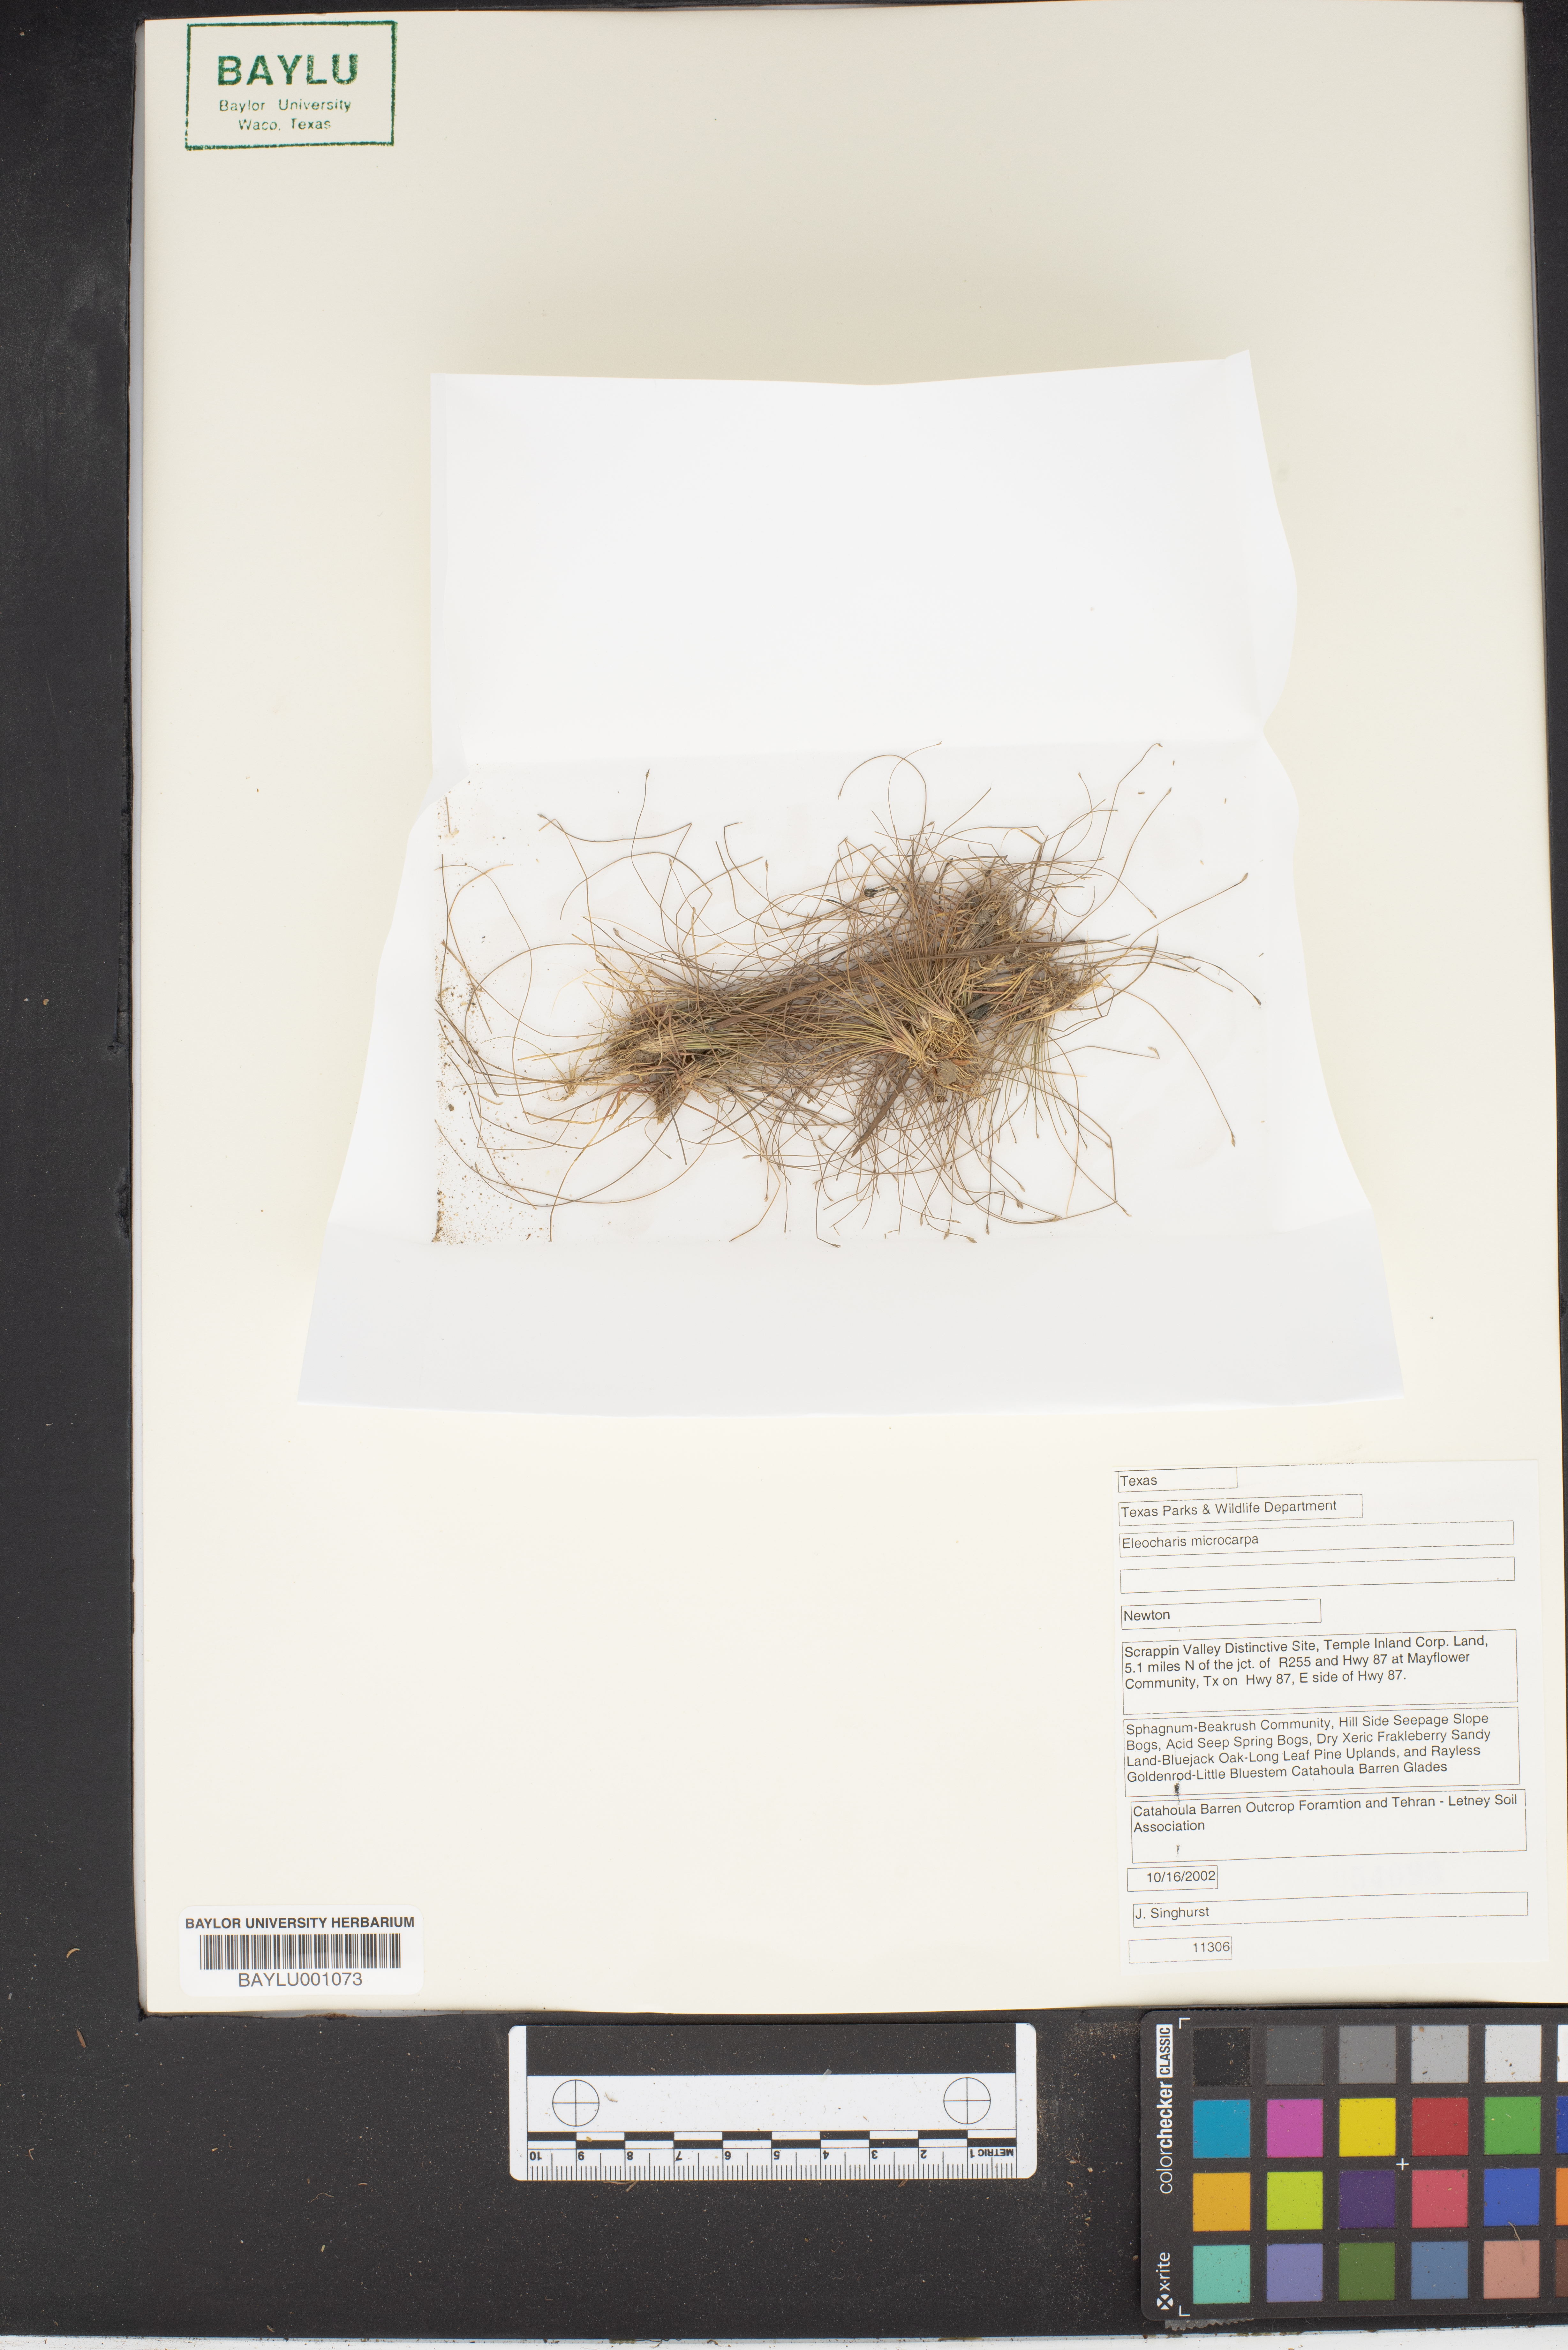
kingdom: Plantae
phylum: Tracheophyta
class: Liliopsida
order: Poales
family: Cyperaceae
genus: Eleocharis
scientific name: Eleocharis microcarpa
